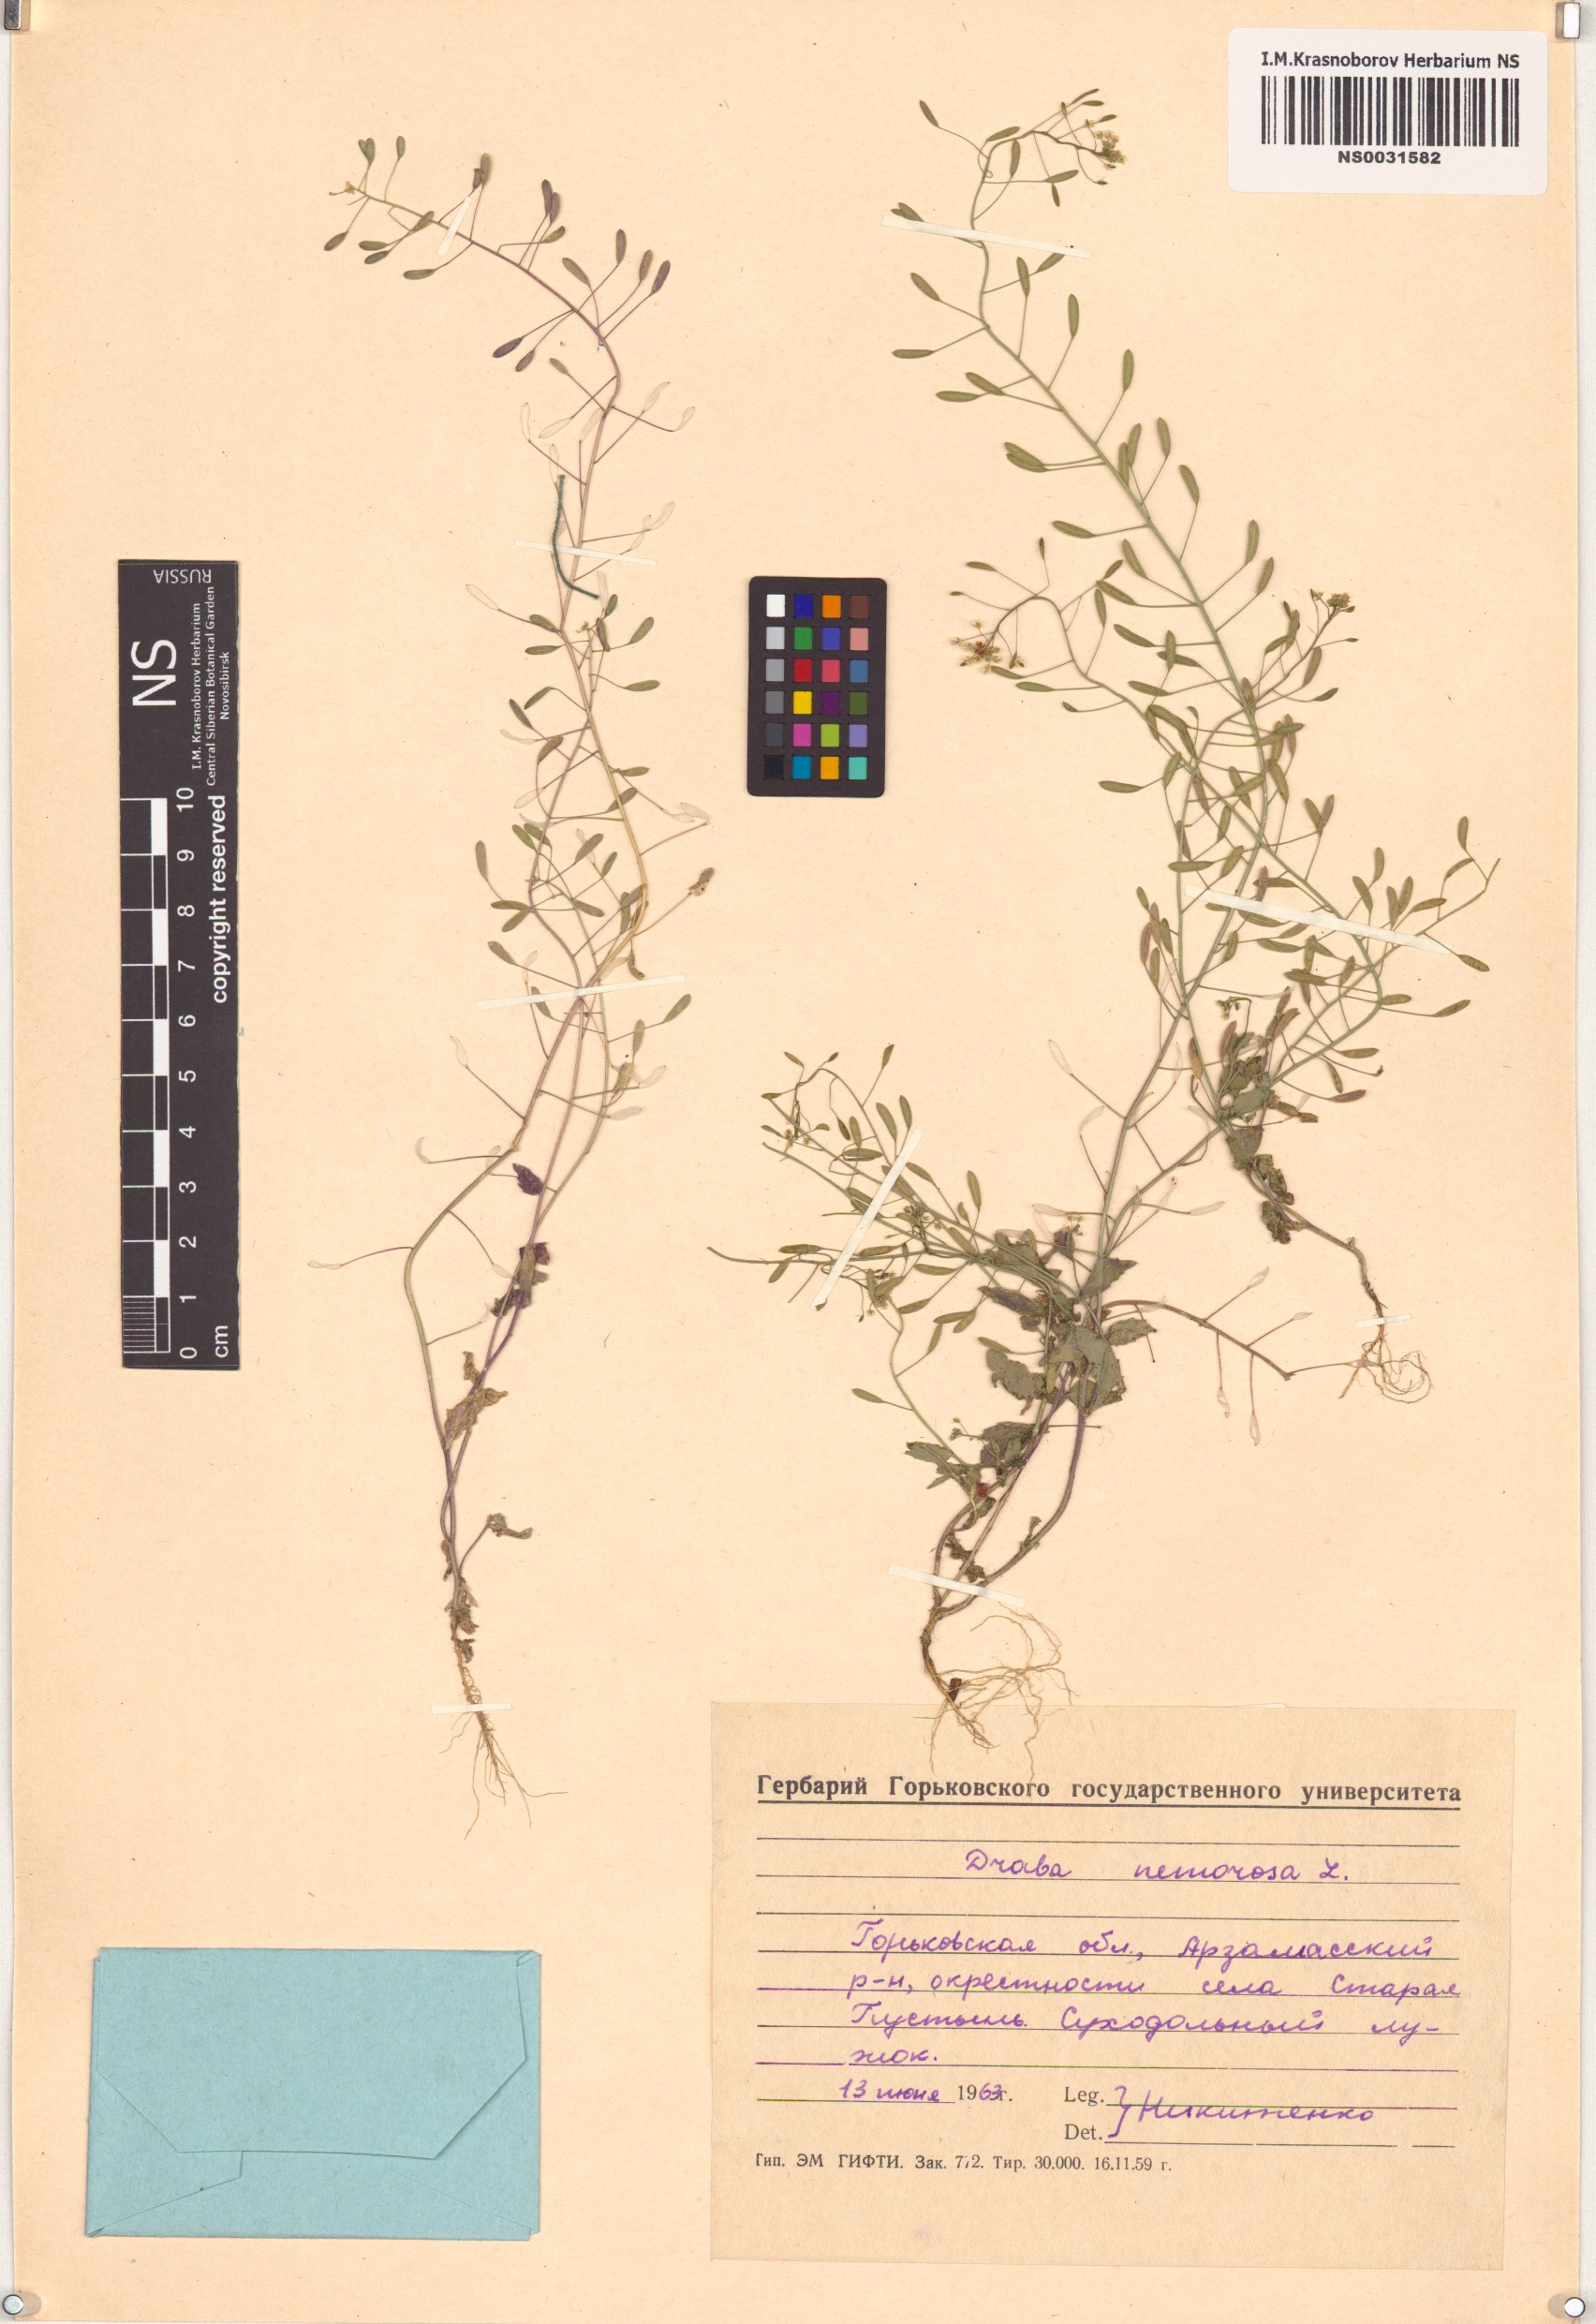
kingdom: Plantae
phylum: Tracheophyta
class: Magnoliopsida
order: Brassicales
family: Brassicaceae
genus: Draba
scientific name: Draba nemorosa
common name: Wood whitlow-grass
